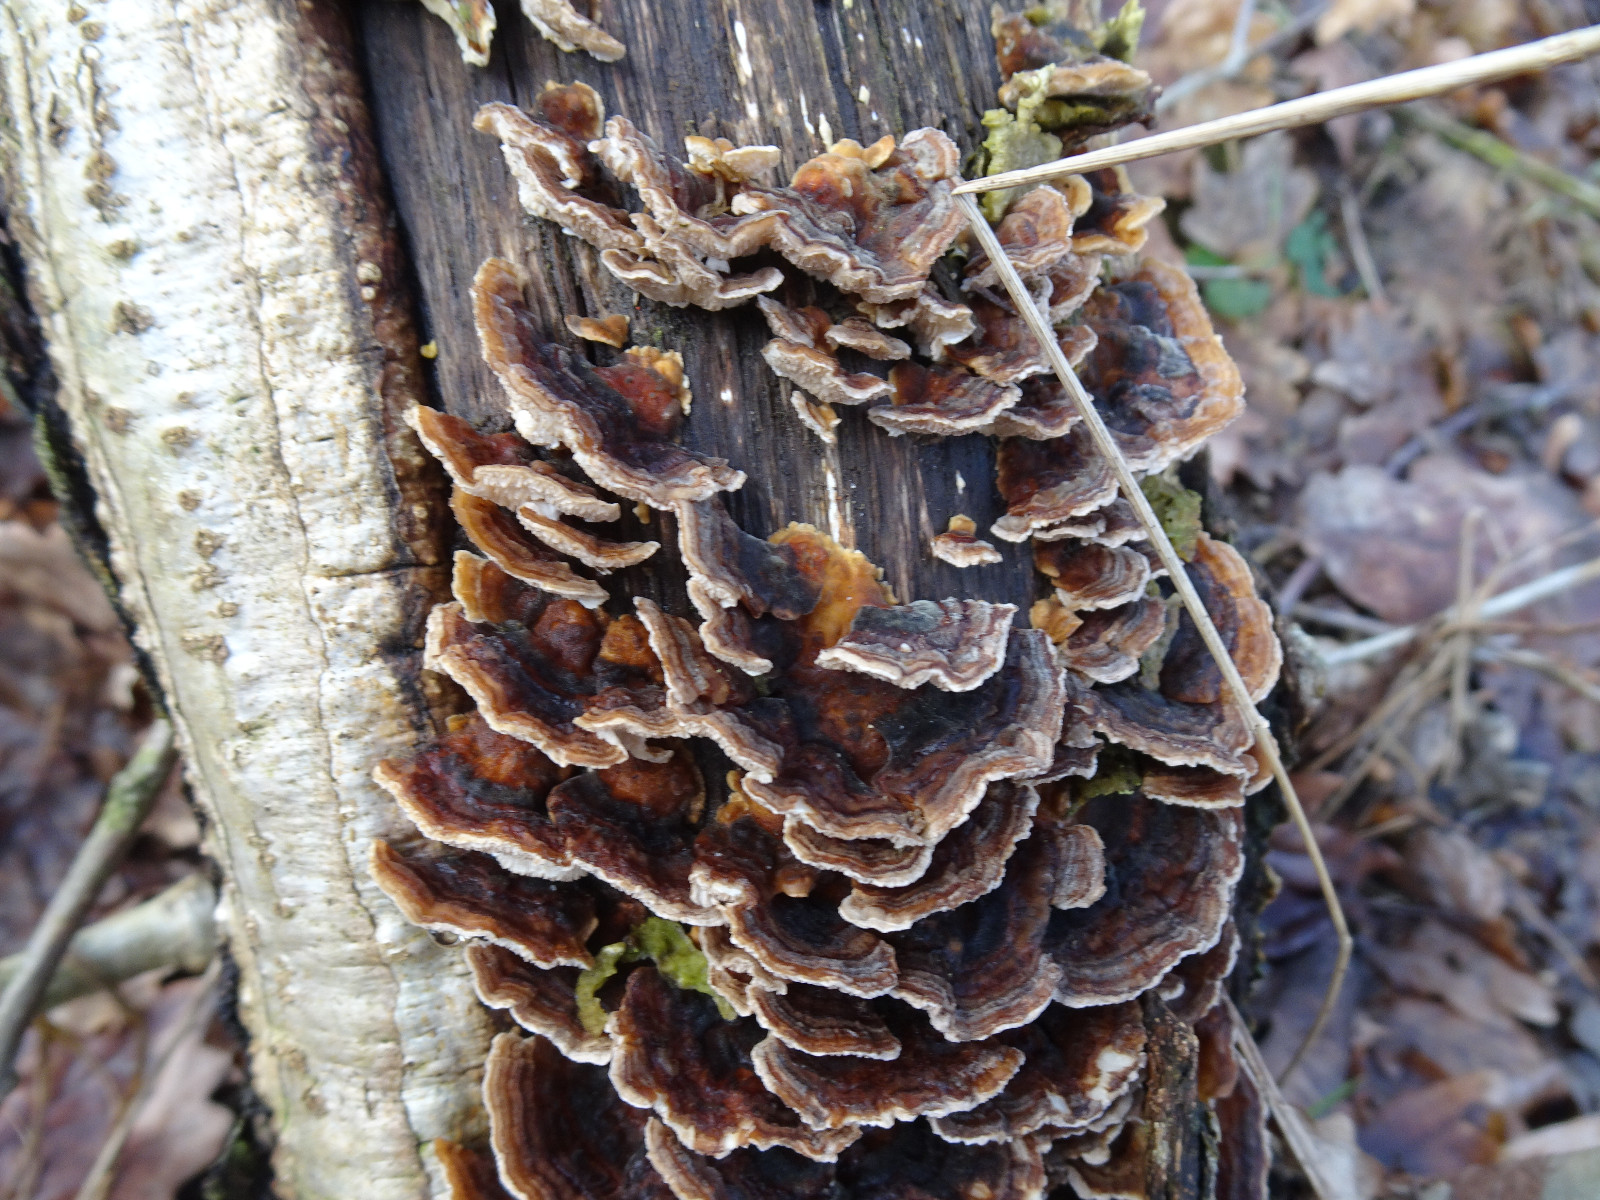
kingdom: Fungi
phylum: Basidiomycota
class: Agaricomycetes
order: Polyporales
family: Polyporaceae
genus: Trametes
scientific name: Trametes versicolor
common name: broget læderporesvamp
